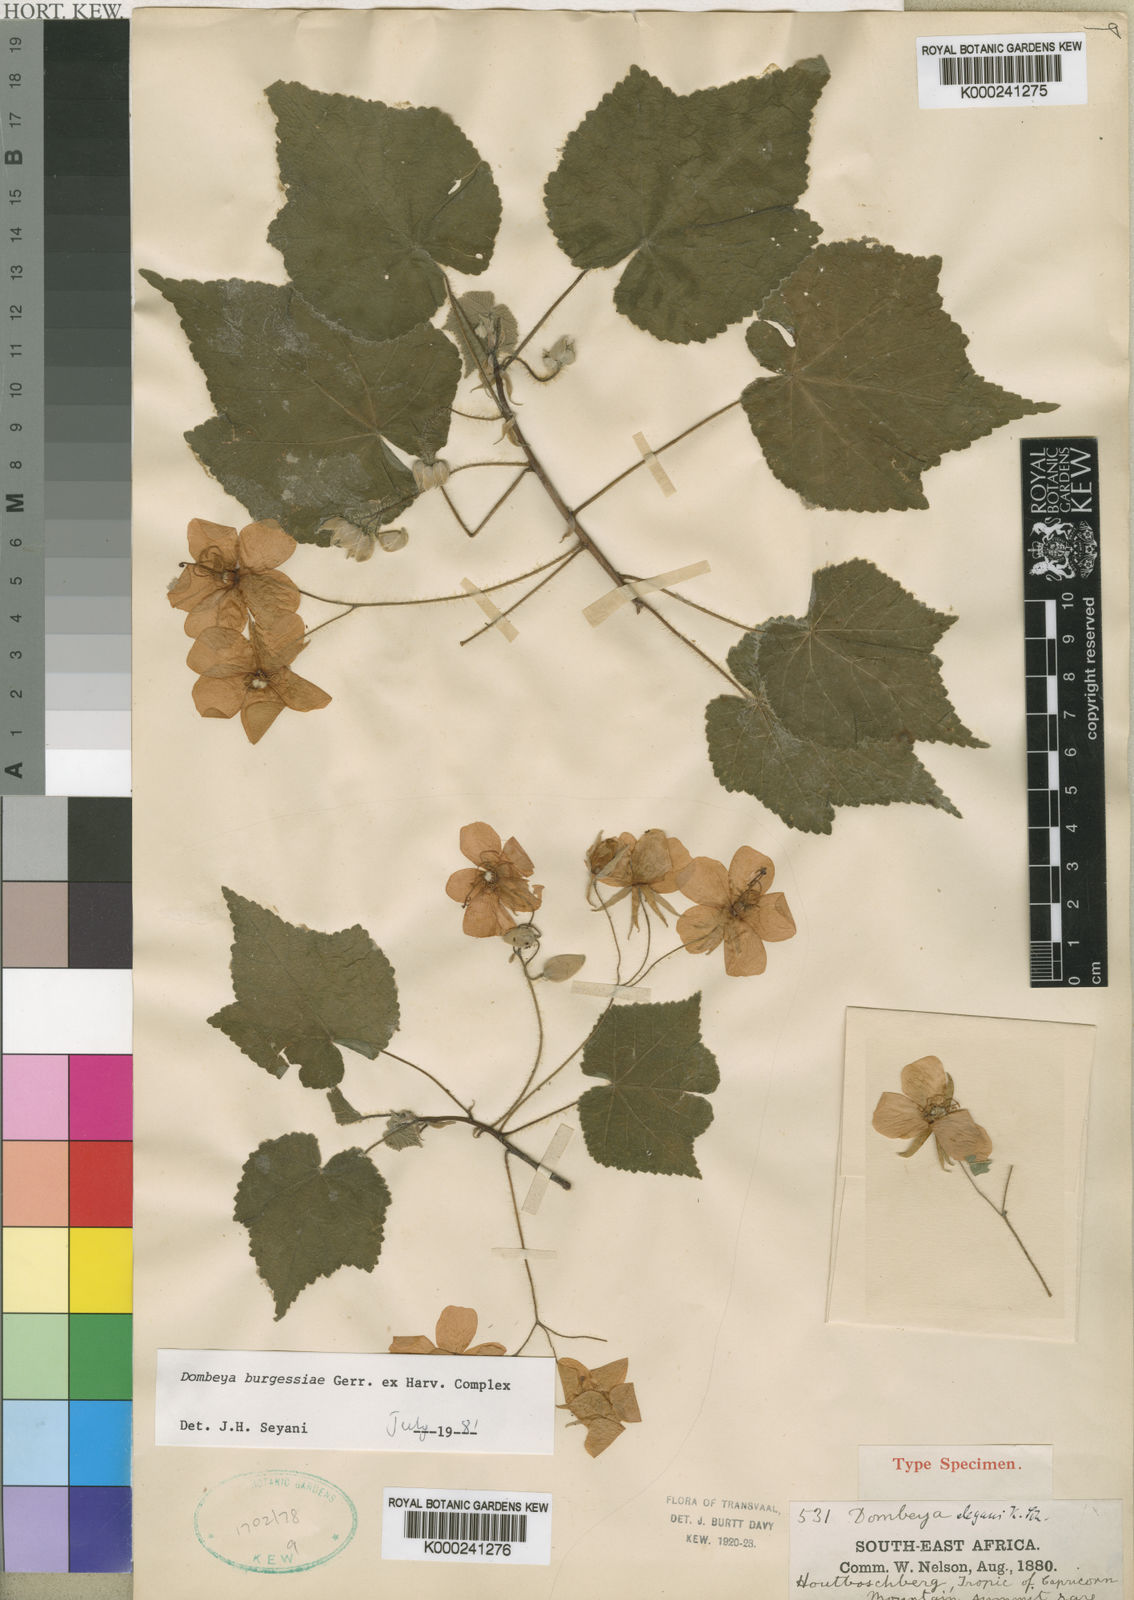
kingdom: Plantae
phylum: Tracheophyta
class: Magnoliopsida
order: Malvales
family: Malvaceae
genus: Dombeya
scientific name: Dombeya burgessiae
